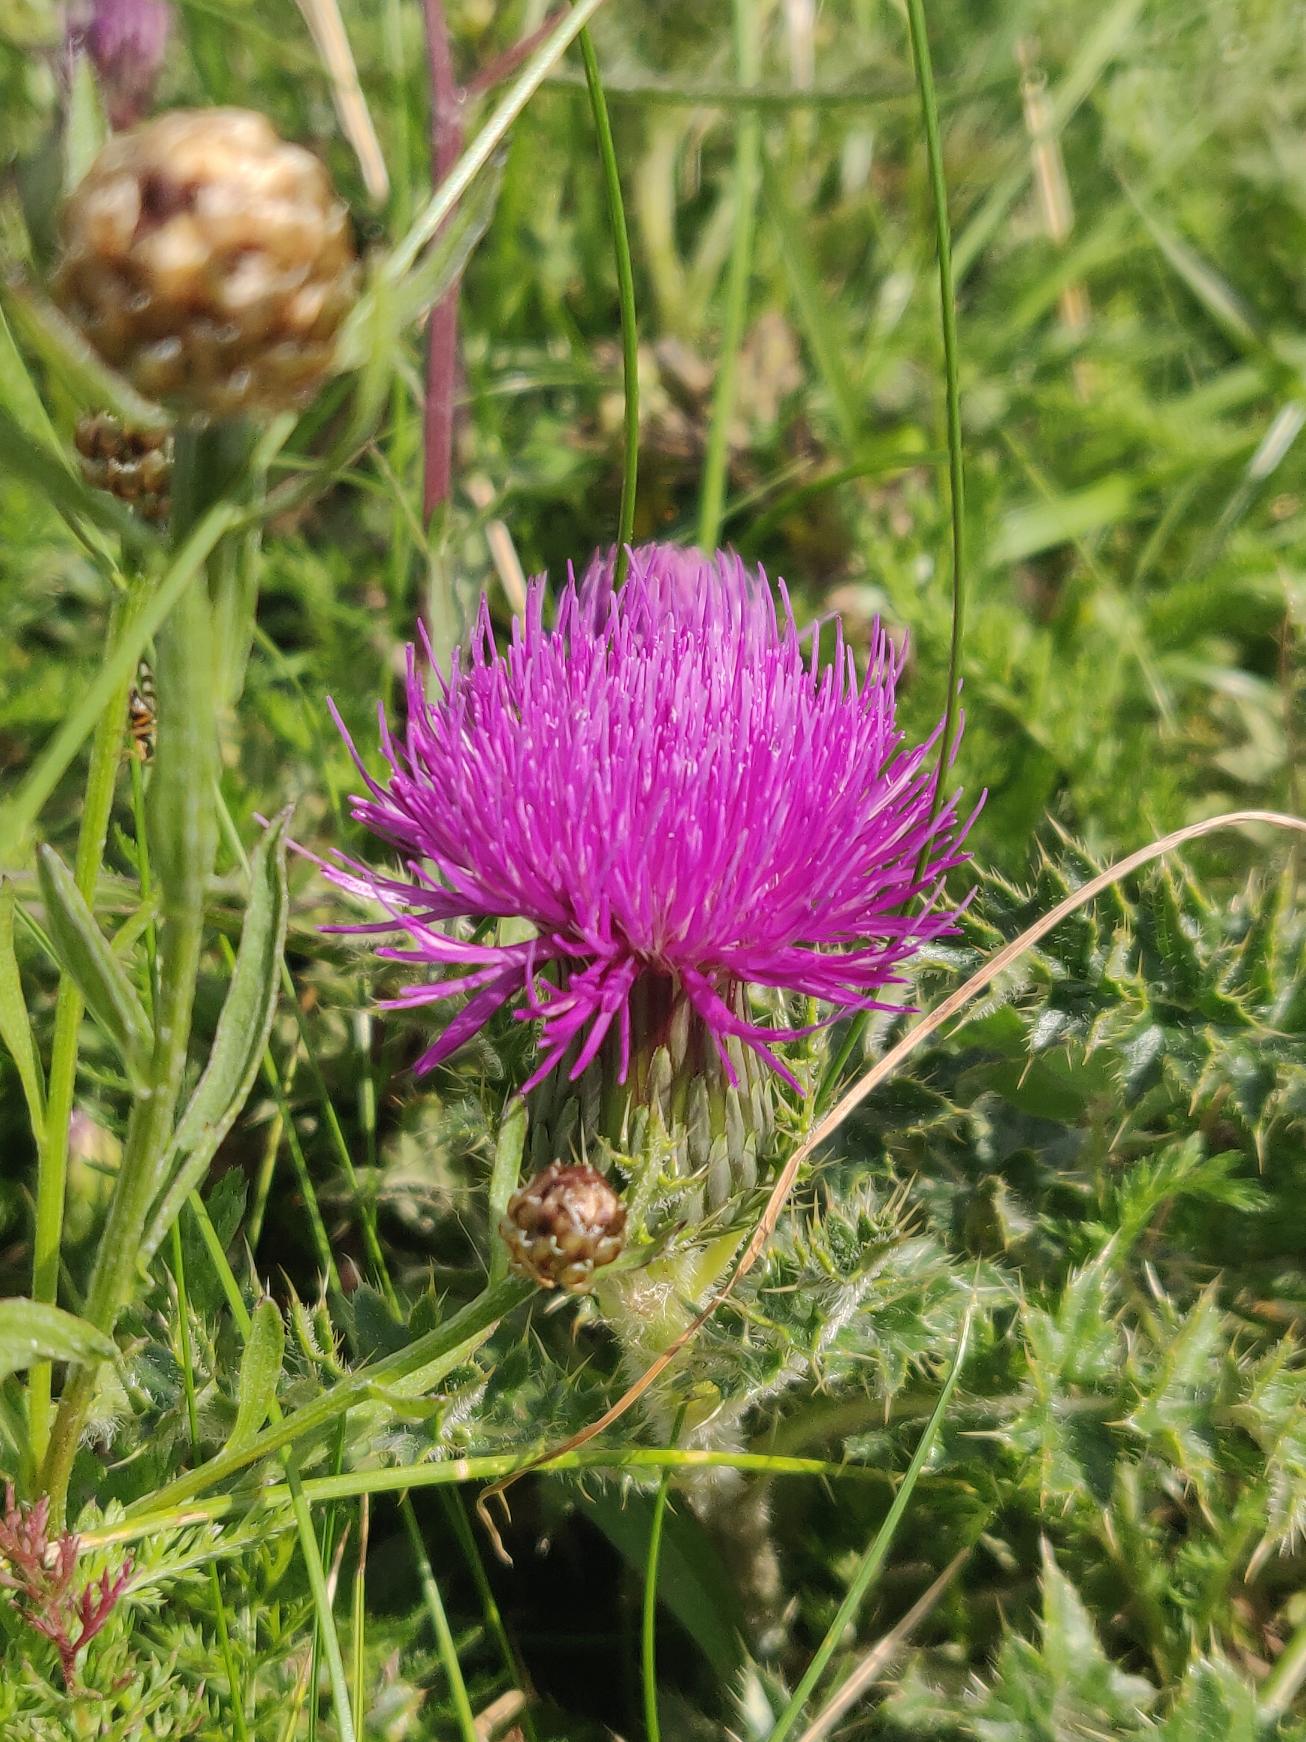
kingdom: Plantae
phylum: Tracheophyta
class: Magnoliopsida
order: Asterales
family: Asteraceae
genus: Cirsium
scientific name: Cirsium acaule
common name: Lav tidsel
